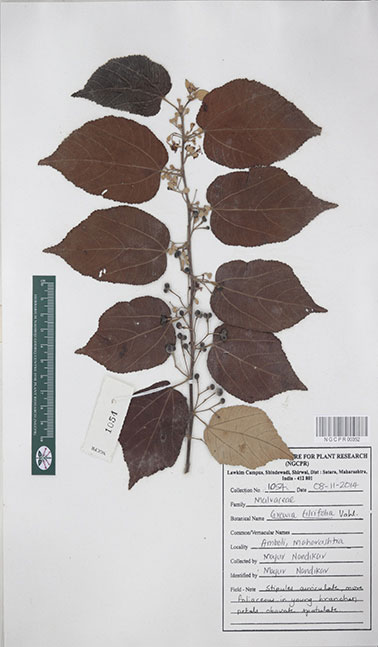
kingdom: Plantae
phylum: Tracheophyta
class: Magnoliopsida
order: Malvales
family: Malvaceae
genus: Grewia
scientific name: Grewia tiliifolia
